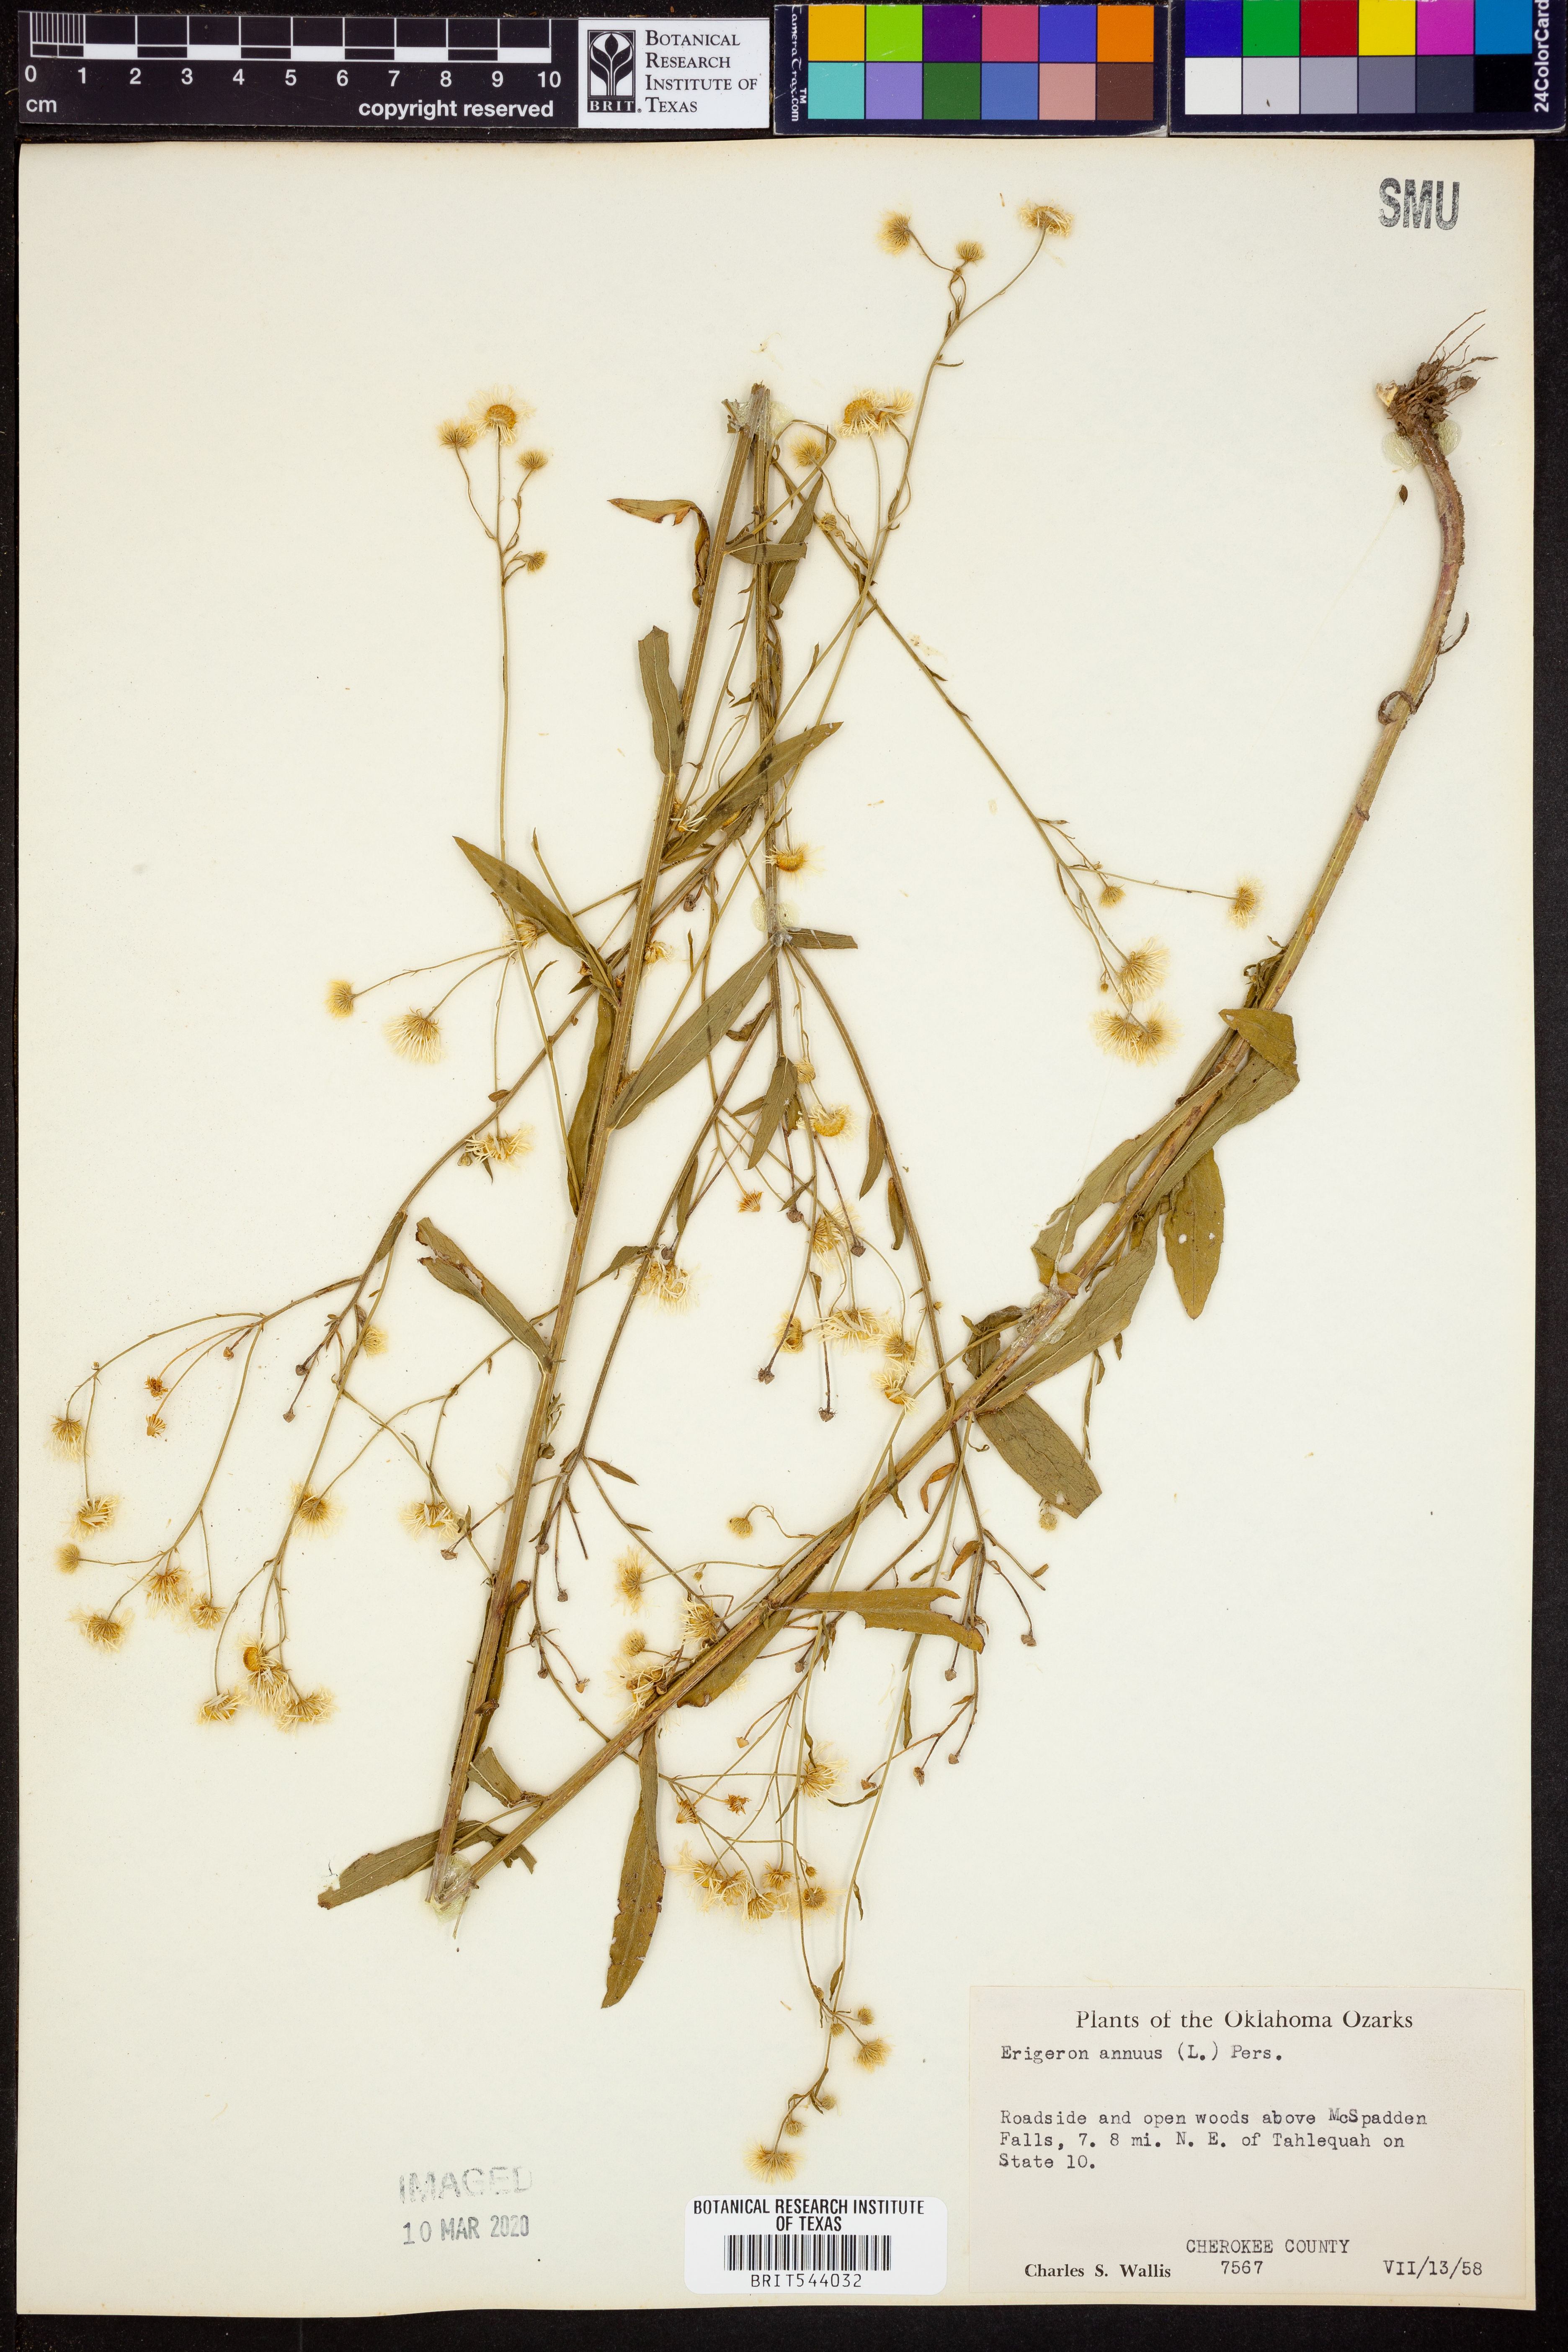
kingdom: Plantae
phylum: Tracheophyta
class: Magnoliopsida
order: Asterales
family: Asteraceae
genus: Erigeron
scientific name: Erigeron annuus
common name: Tall fleabane
